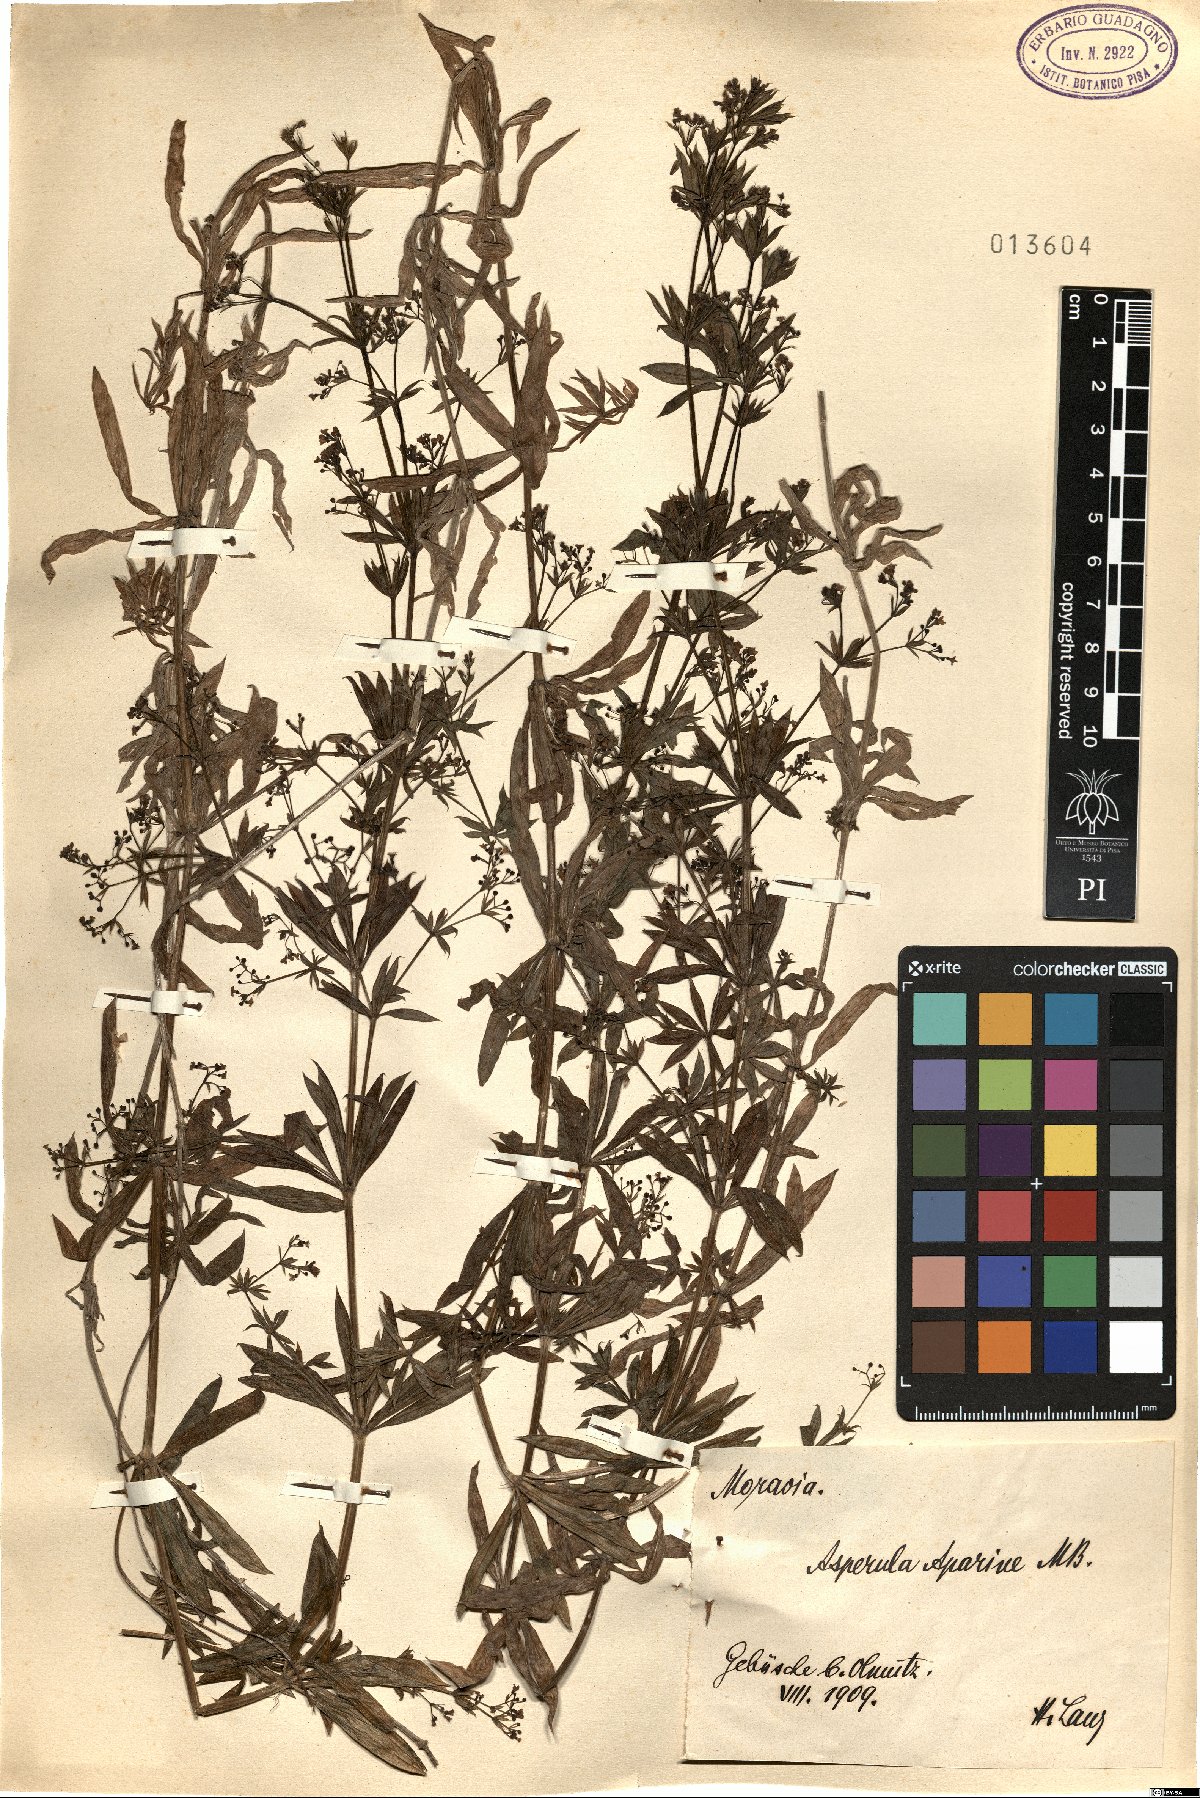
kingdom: Plantae
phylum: Tracheophyta
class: Magnoliopsida
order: Gentianales
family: Rubiaceae
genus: Galium
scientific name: Galium pseudorivale
